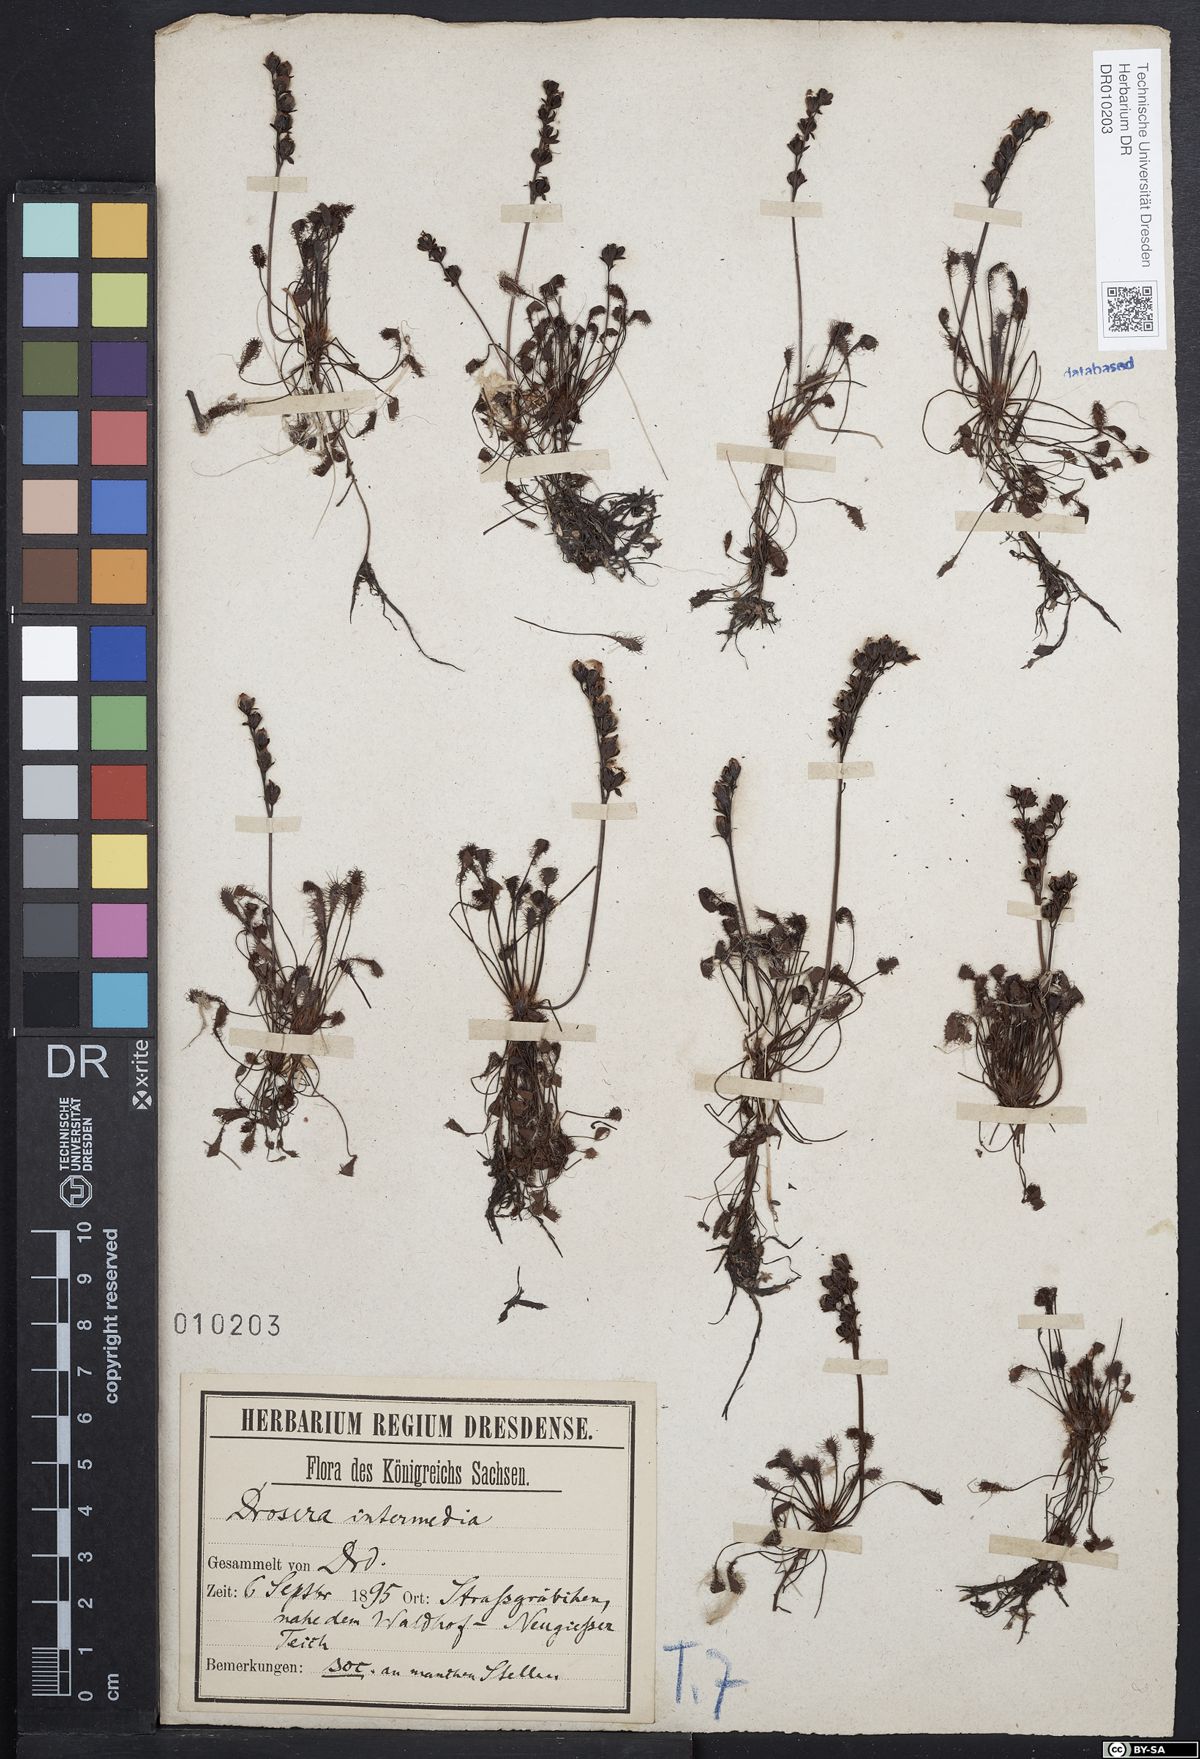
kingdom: Plantae
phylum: Tracheophyta
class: Magnoliopsida
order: Caryophyllales
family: Droseraceae
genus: Drosera
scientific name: Drosera intermedia
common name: Oblong-leaved sundew
